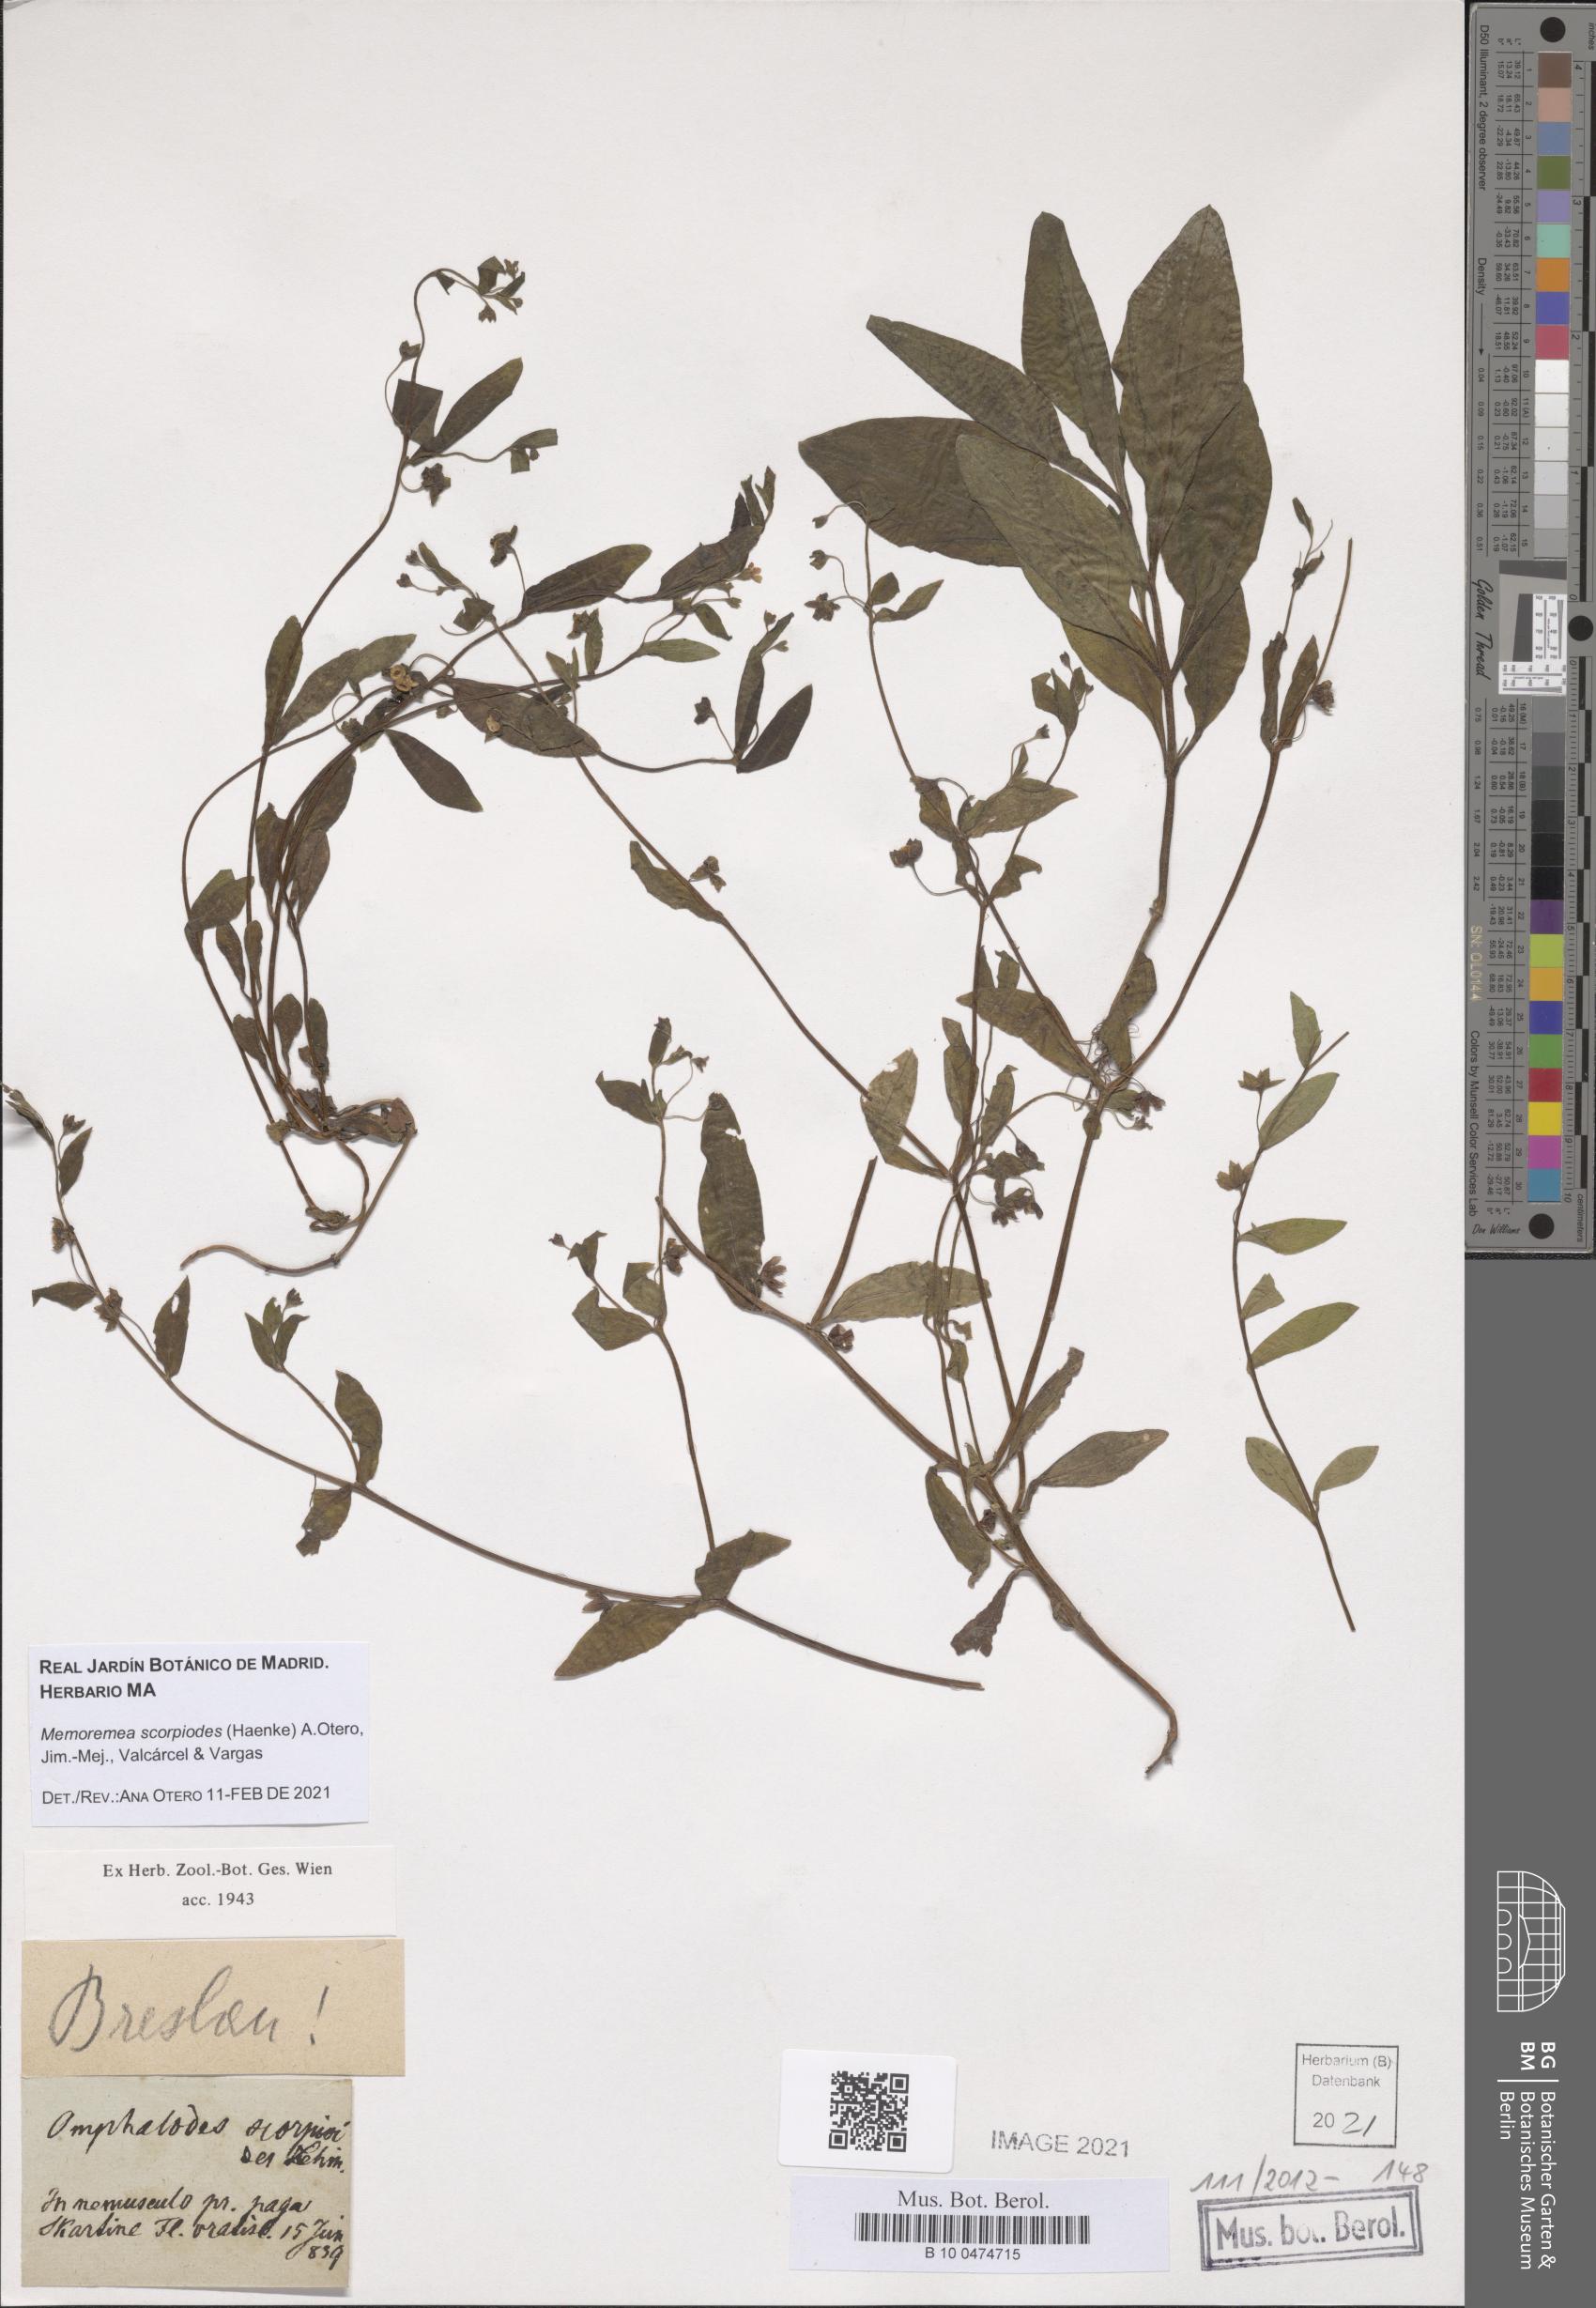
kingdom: Plantae
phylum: Tracheophyta
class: Magnoliopsida
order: Boraginales
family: Boraginaceae
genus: Memoremea
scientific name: Memoremea scorpioides
